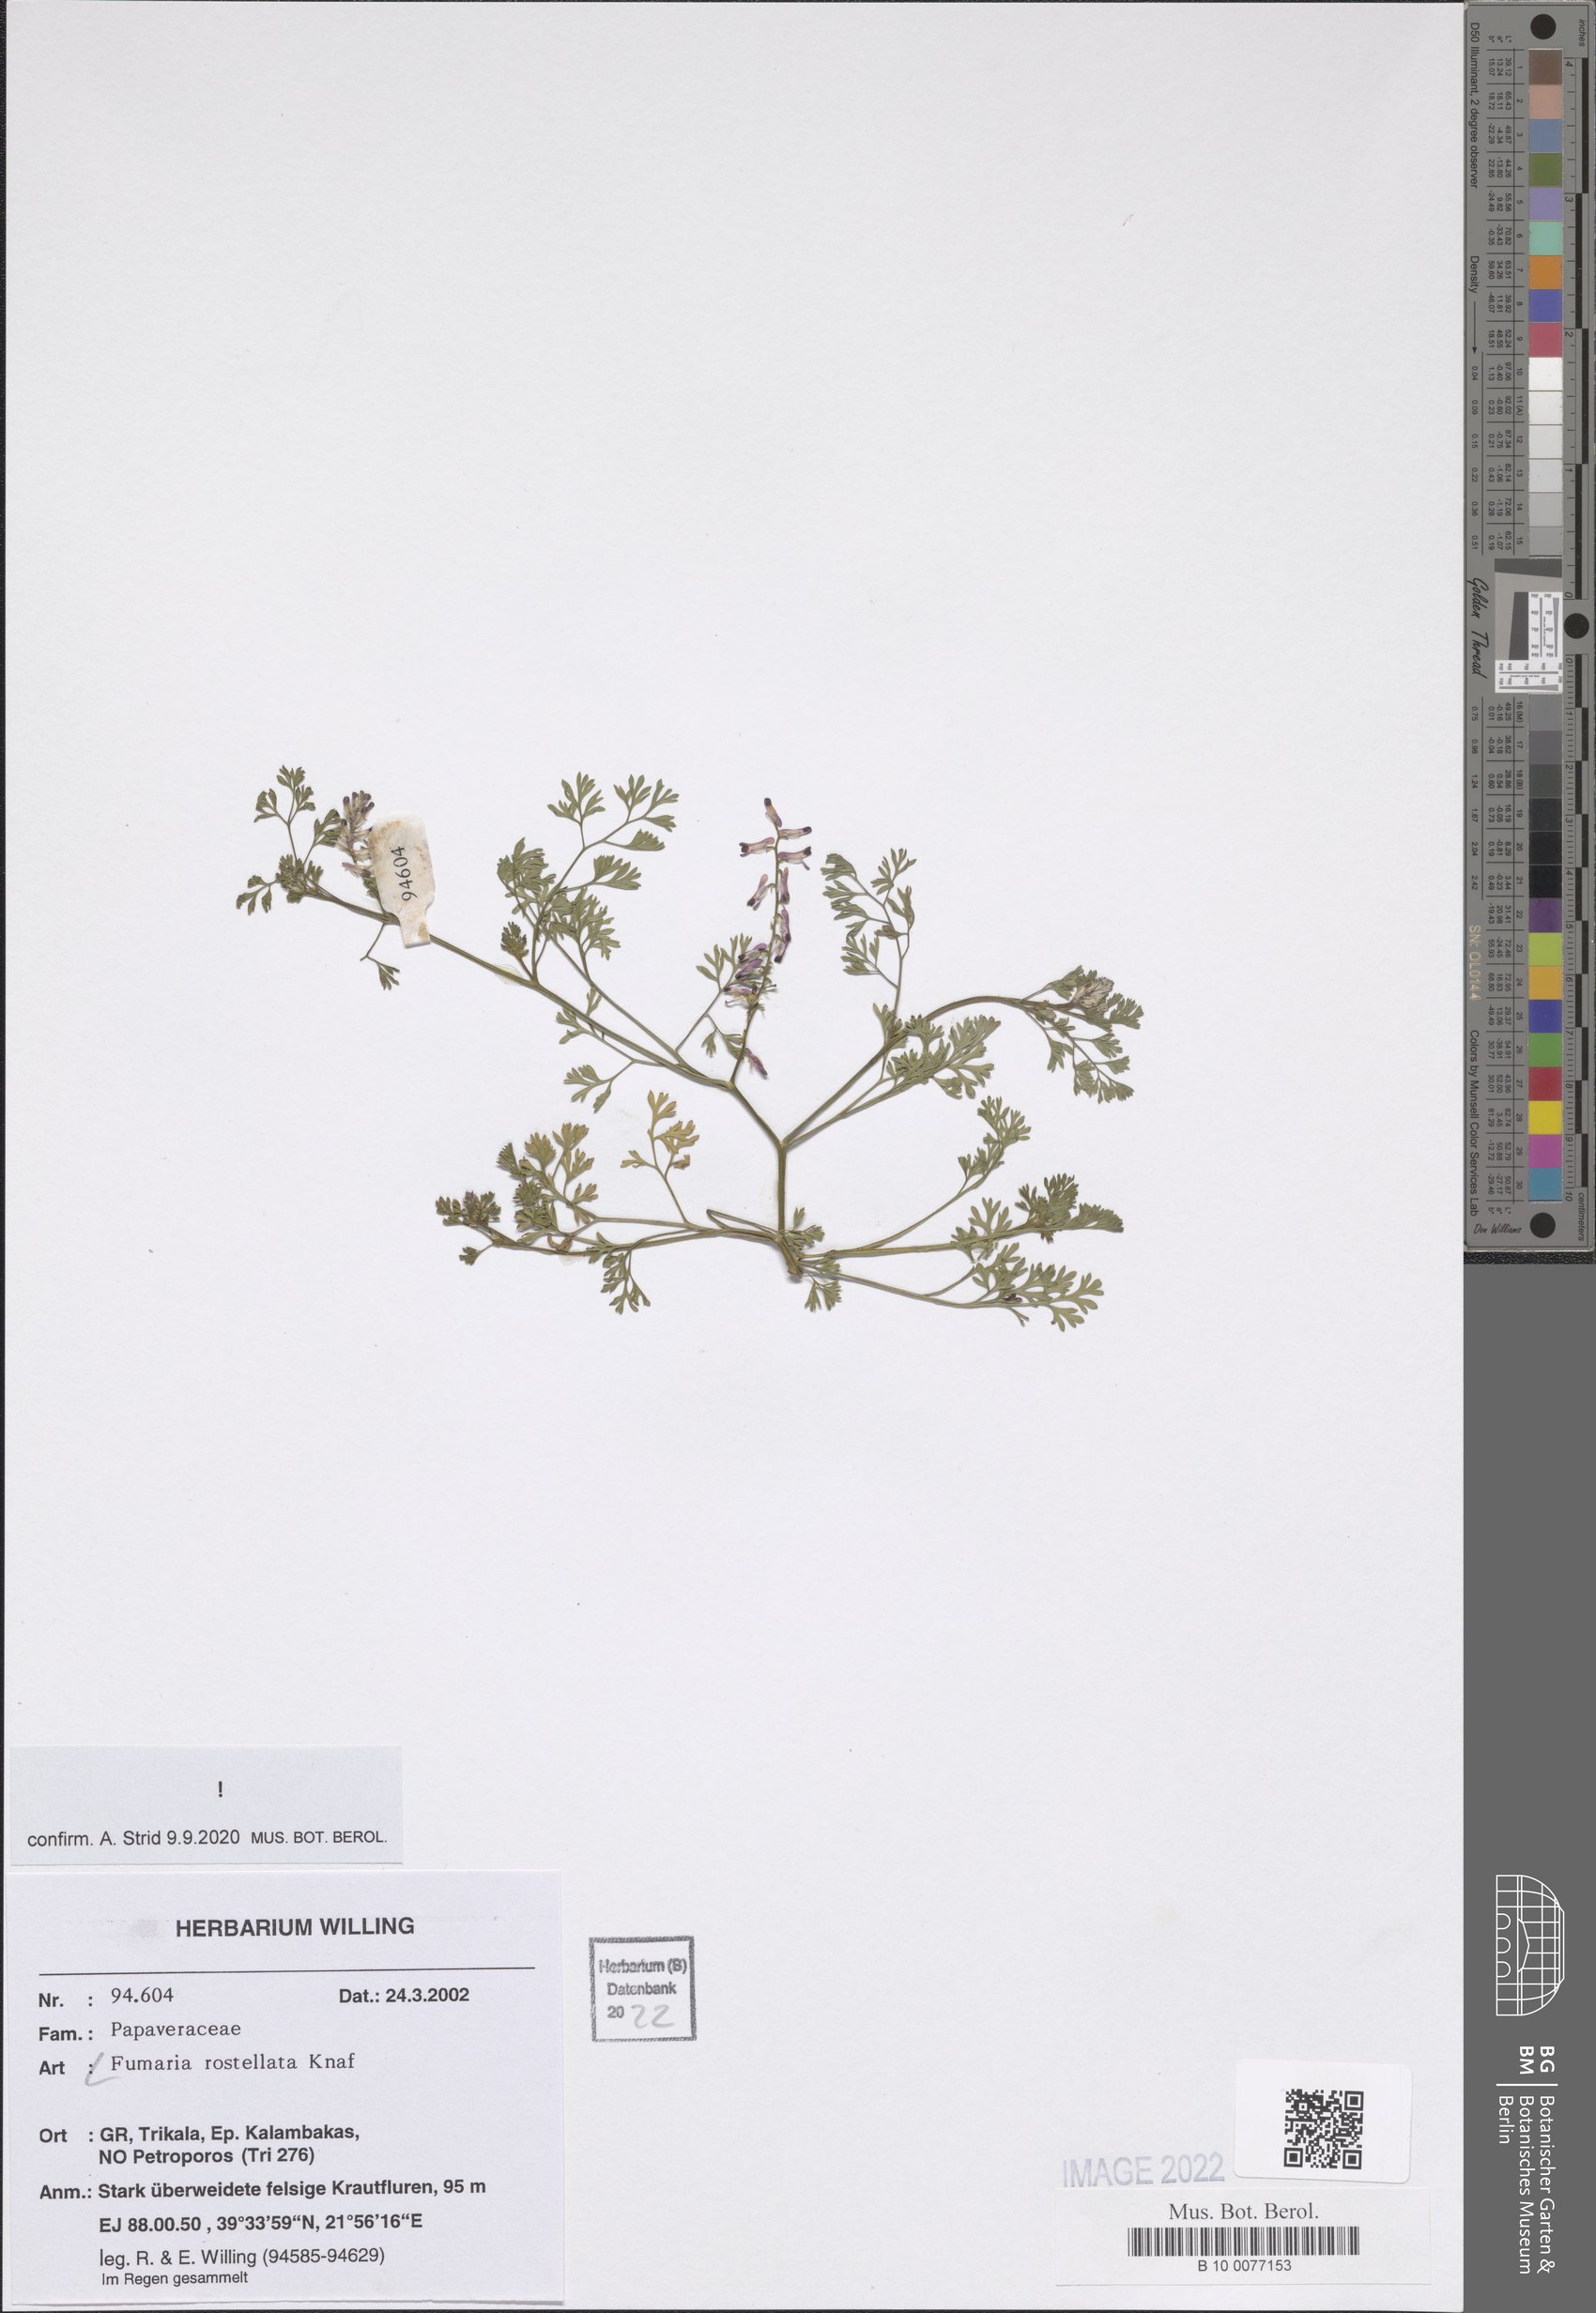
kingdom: Plantae
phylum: Tracheophyta
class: Magnoliopsida
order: Ranunculales
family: Papaveraceae
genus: Fumaria
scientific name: Fumaria rostellata
